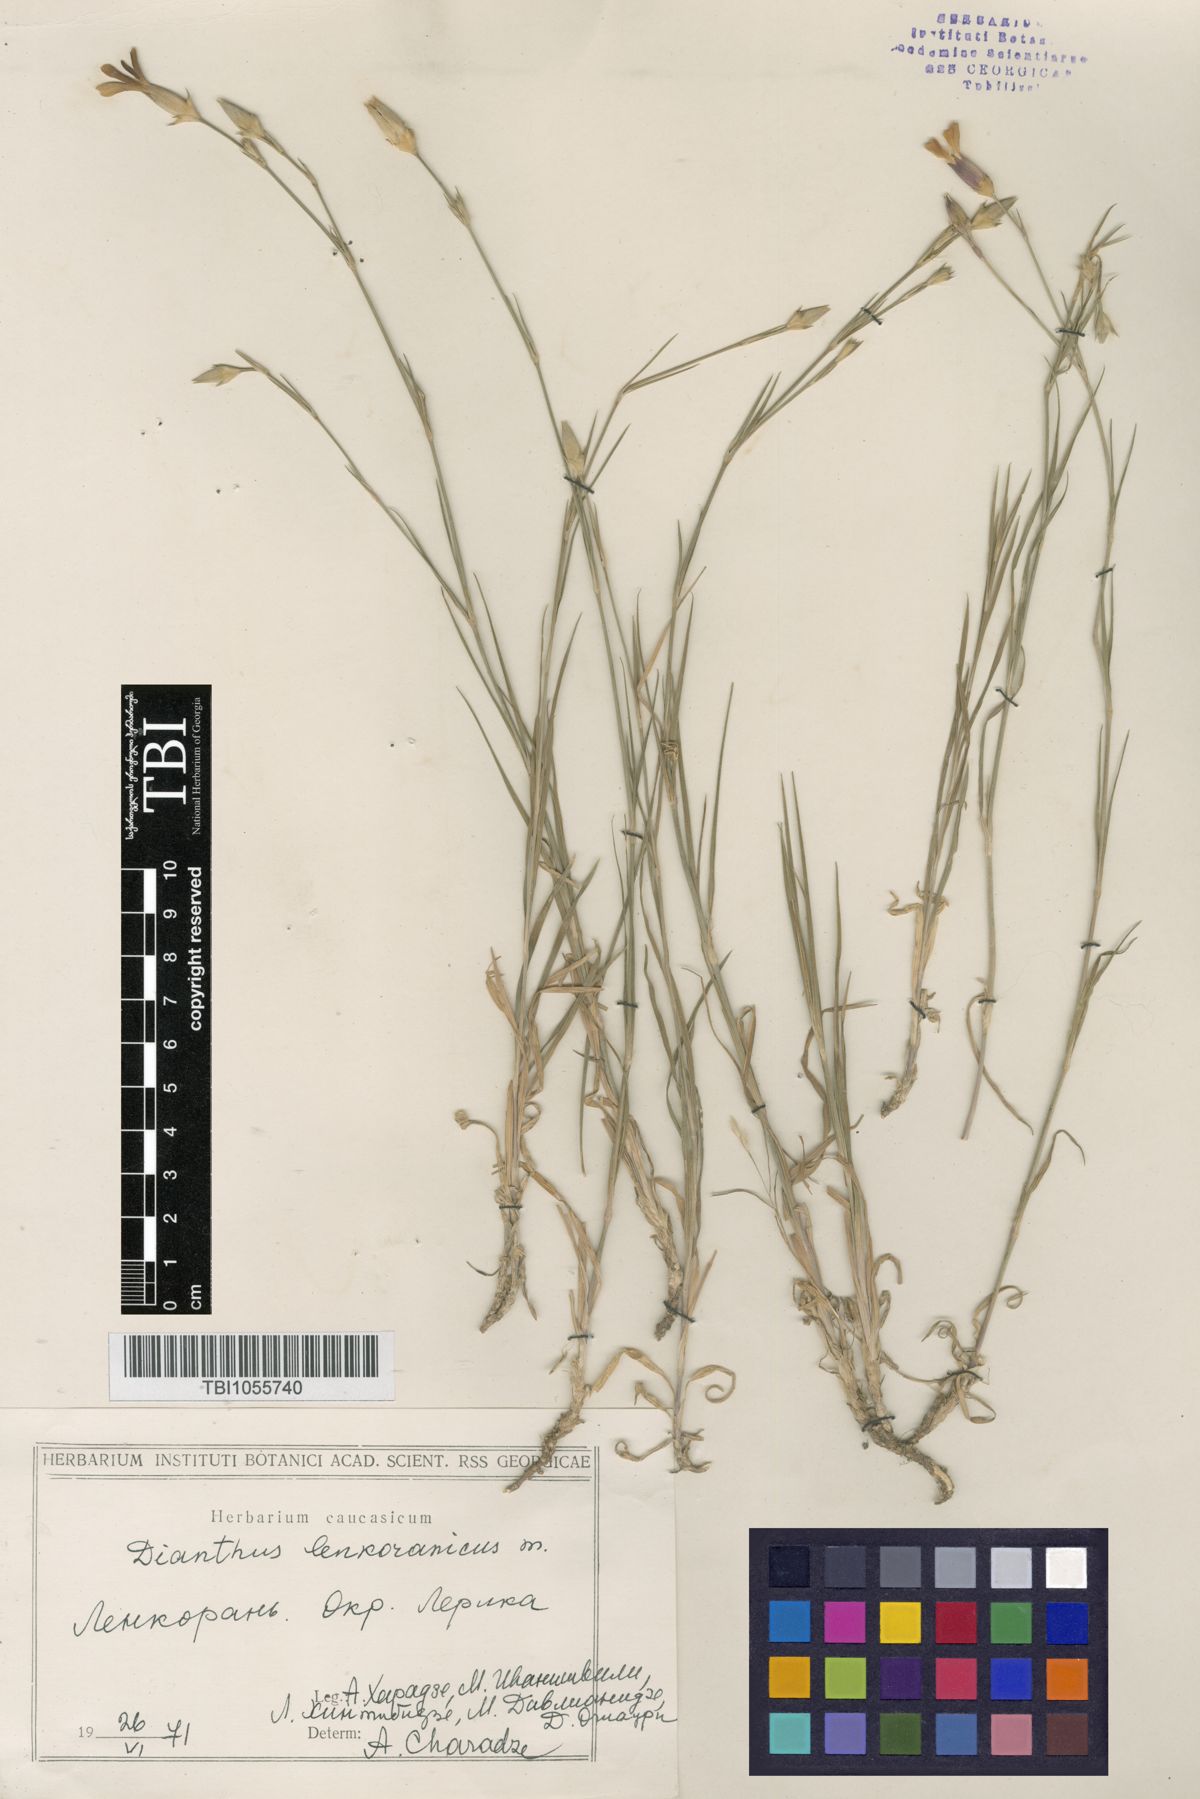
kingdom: Plantae
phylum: Tracheophyta
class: Magnoliopsida
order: Caryophyllales
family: Caryophyllaceae
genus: Dianthus
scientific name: Dianthus
